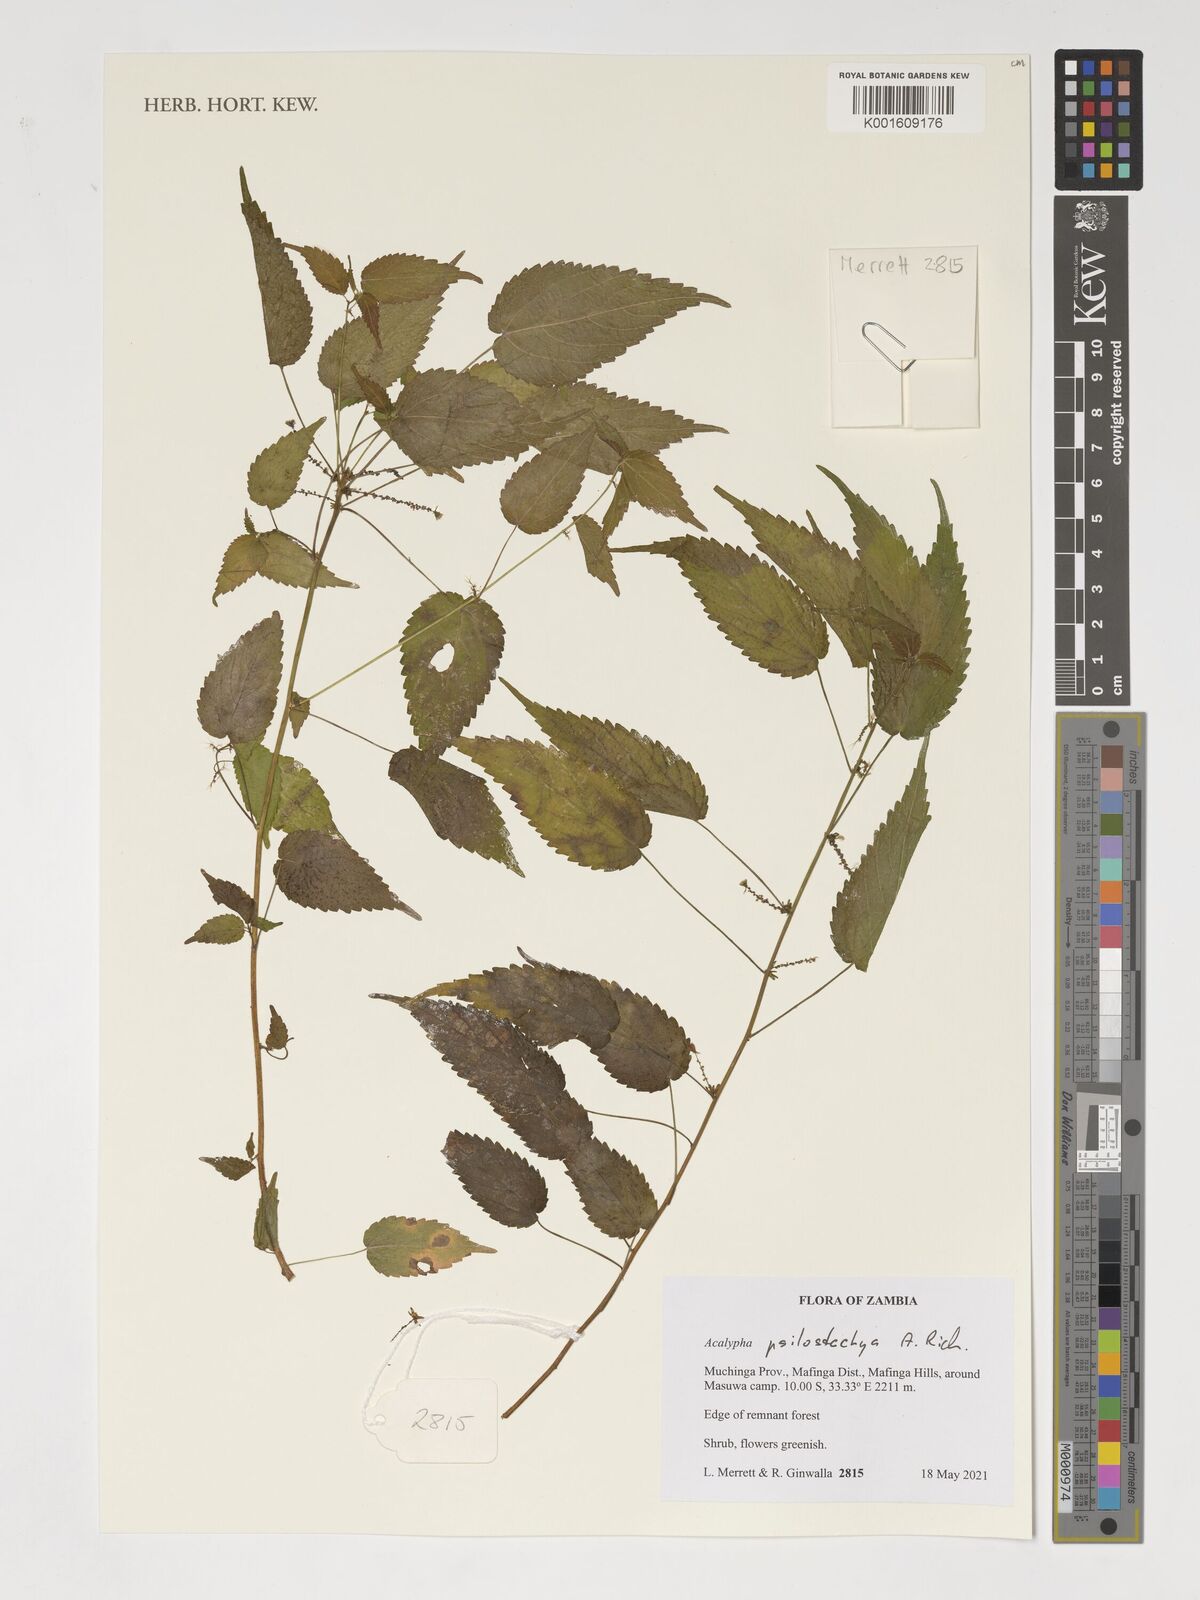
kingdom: Plantae
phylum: Tracheophyta
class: Magnoliopsida
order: Malpighiales
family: Euphorbiaceae
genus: Acalypha
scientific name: Acalypha psilostachya
